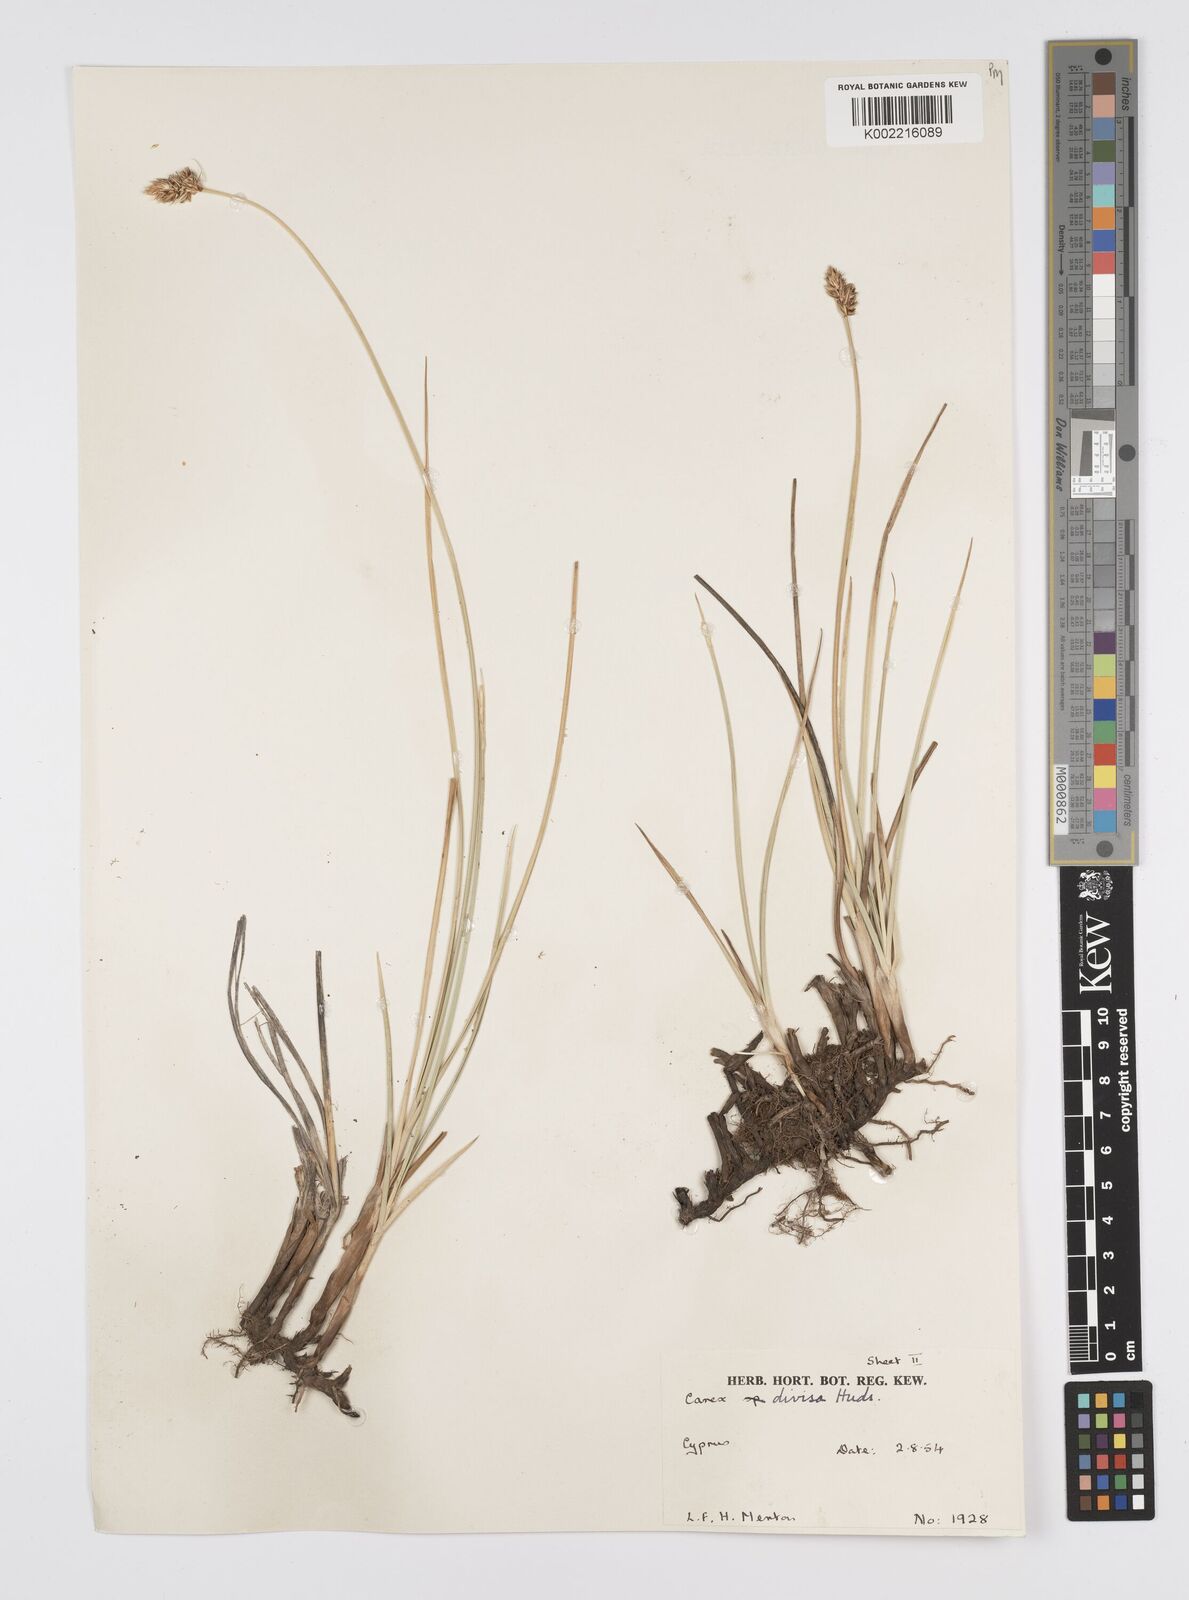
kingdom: Plantae
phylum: Tracheophyta
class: Liliopsida
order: Poales
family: Cyperaceae
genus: Carex
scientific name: Carex divisa
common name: Divided sedge
